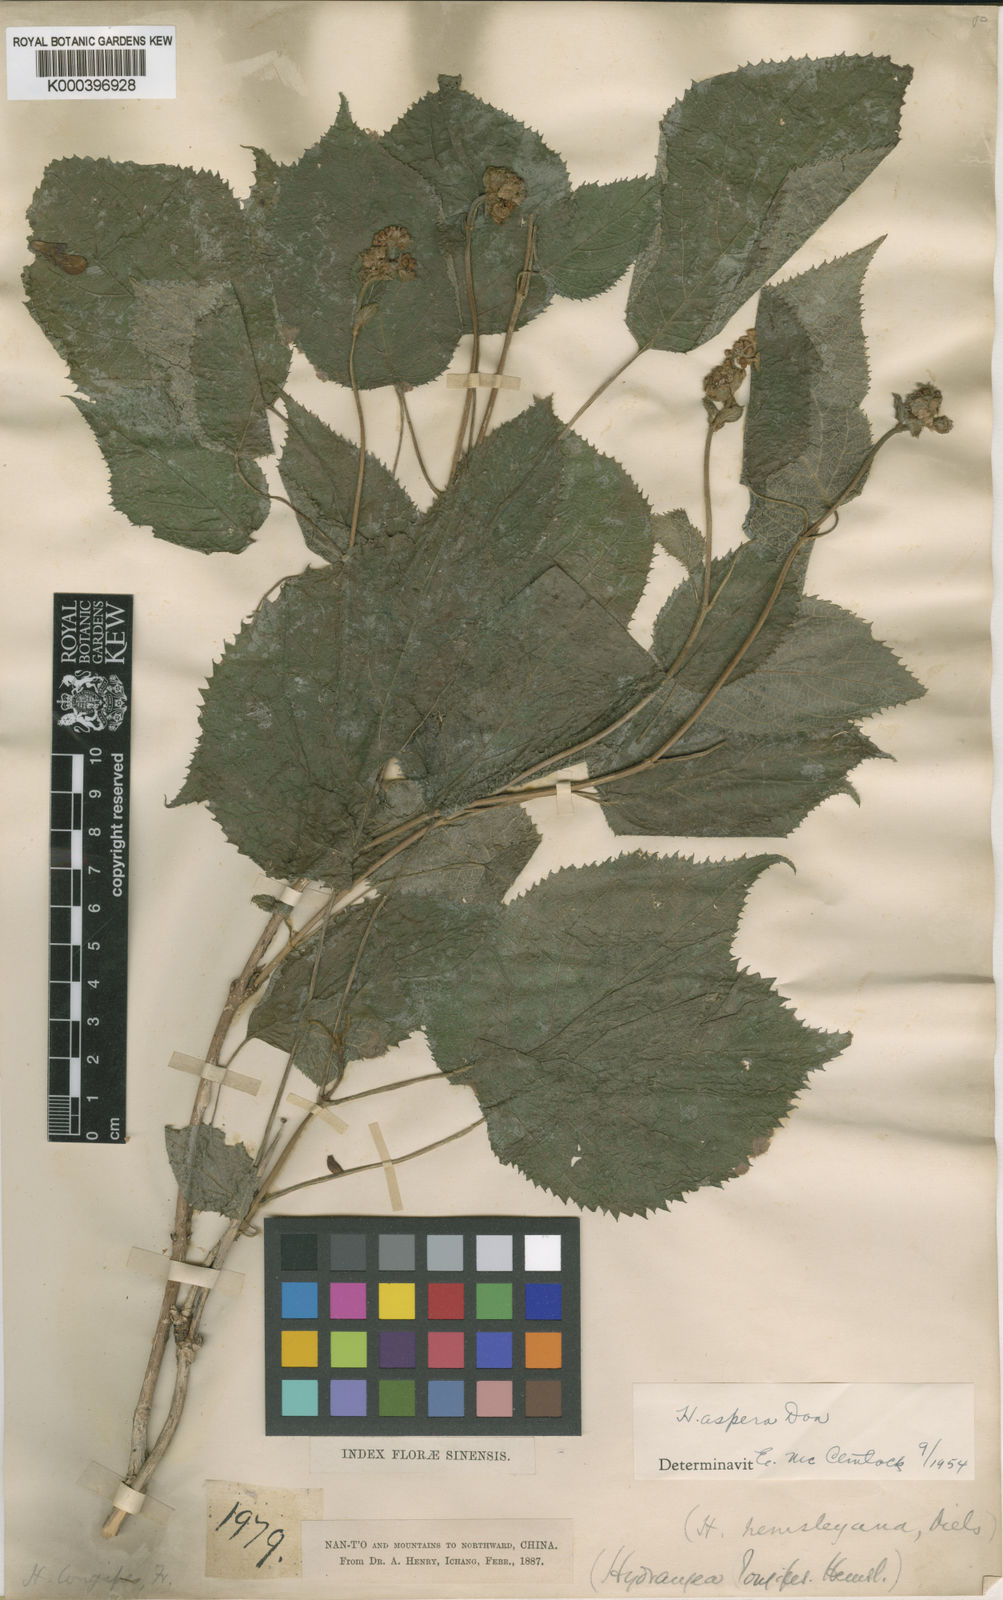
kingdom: Plantae
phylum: Tracheophyta
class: Magnoliopsida
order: Cornales
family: Hydrangeaceae
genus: Hydrangea
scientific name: Hydrangea longipes
